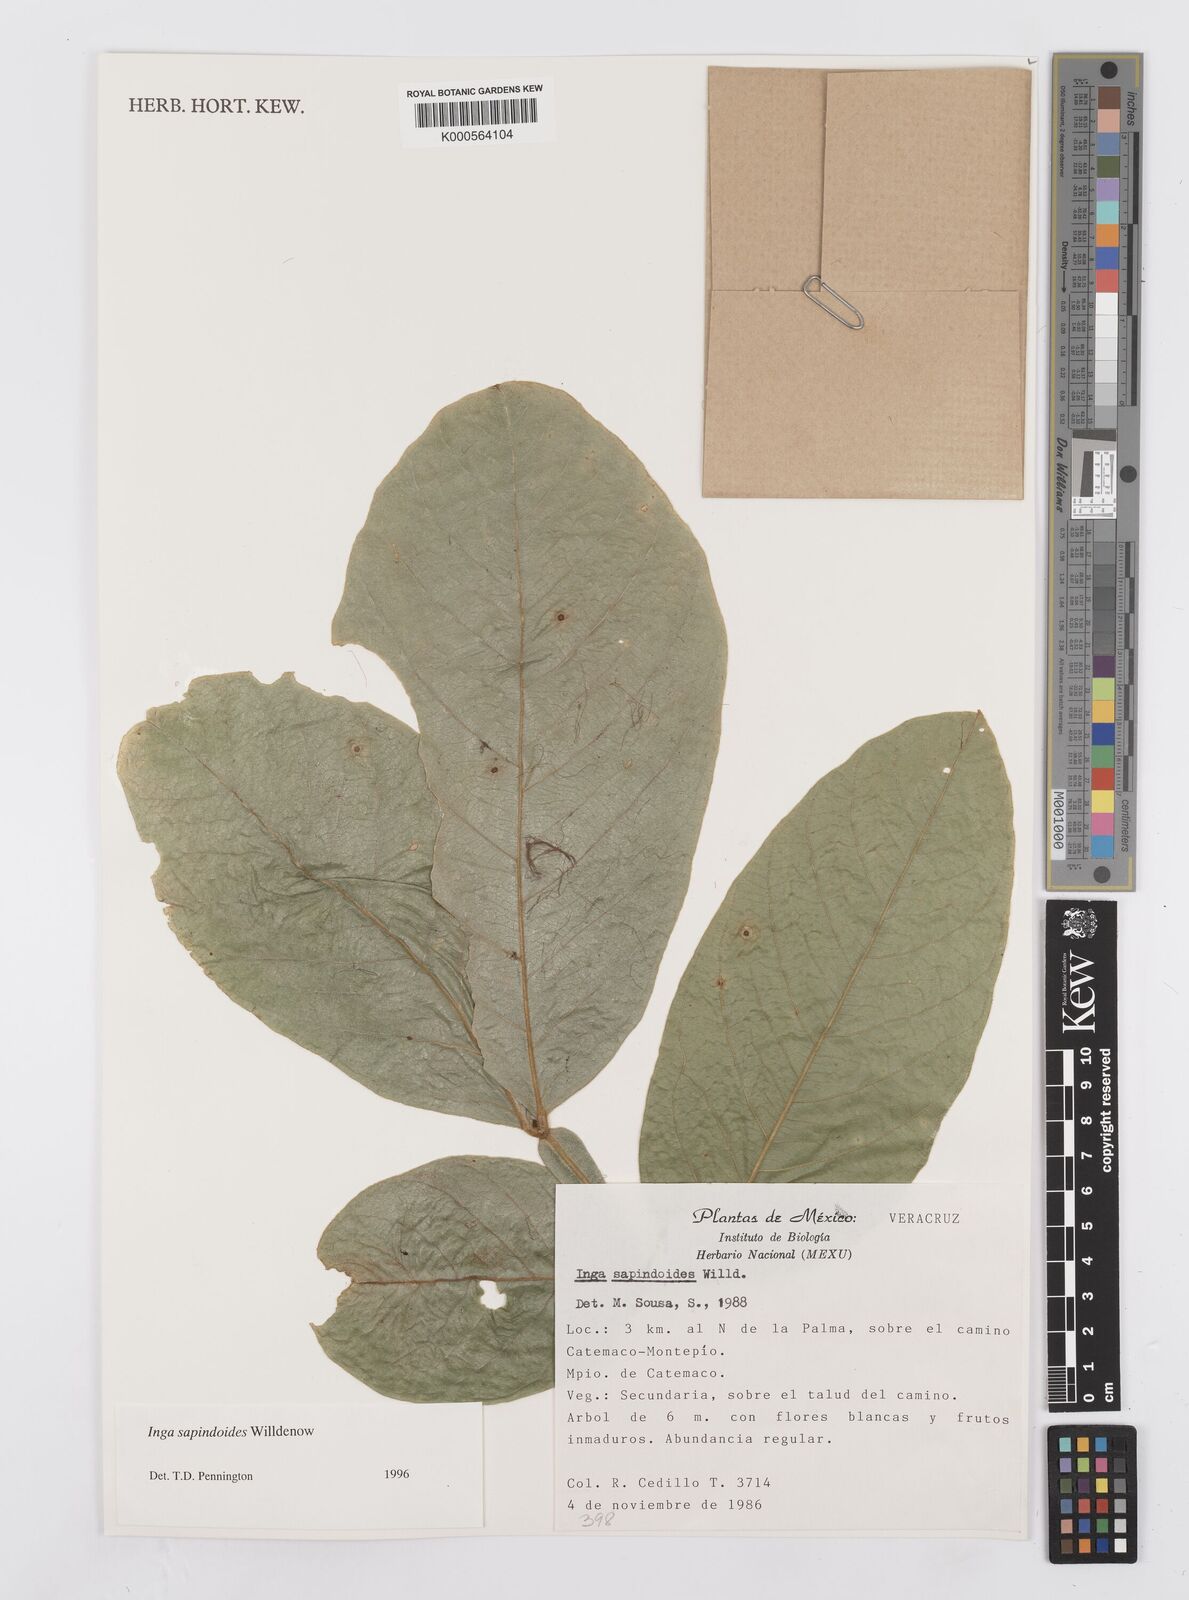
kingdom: Plantae
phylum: Tracheophyta
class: Magnoliopsida
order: Fabales
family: Fabaceae
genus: Inga
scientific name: Inga sapindoides
